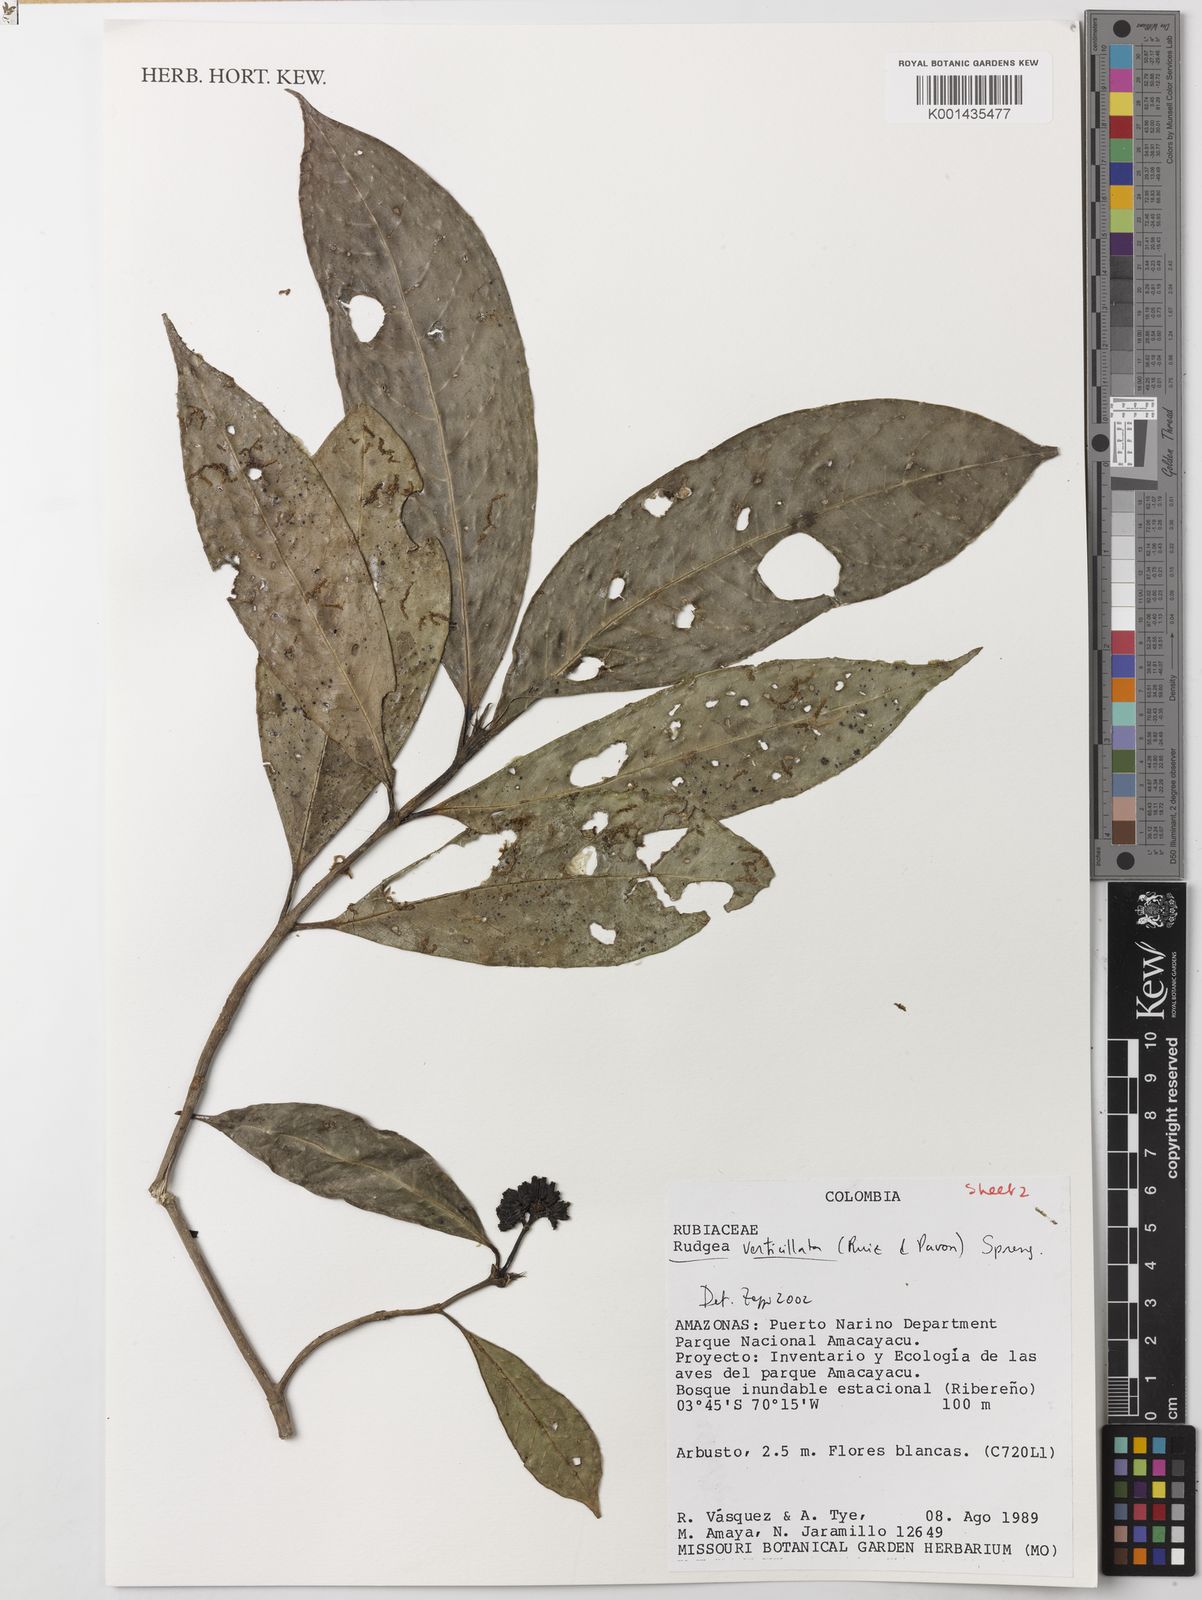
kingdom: Plantae
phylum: Tracheophyta
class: Magnoliopsida
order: Gentianales
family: Rubiaceae
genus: Rudgea
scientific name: Rudgea verticillata
